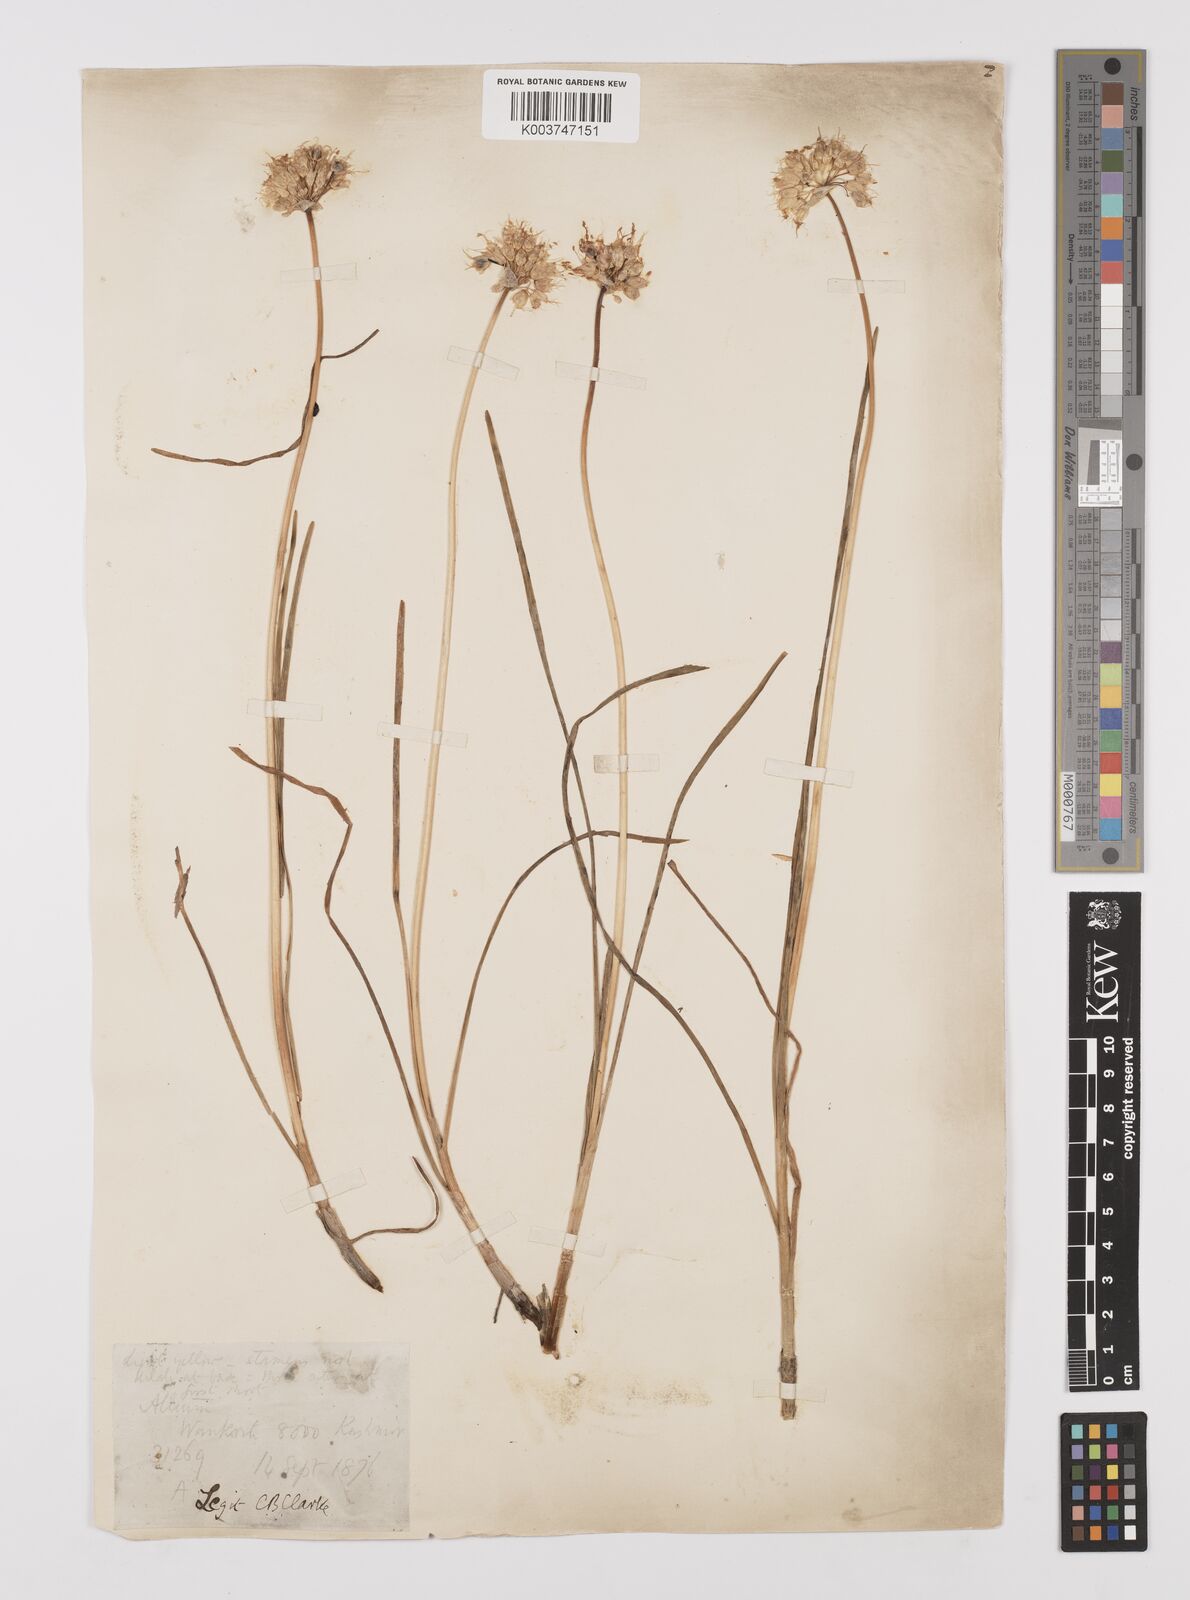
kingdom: Plantae
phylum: Tracheophyta
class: Liliopsida
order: Asparagales
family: Amaryllidaceae
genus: Allium
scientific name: Allium stracheyi
